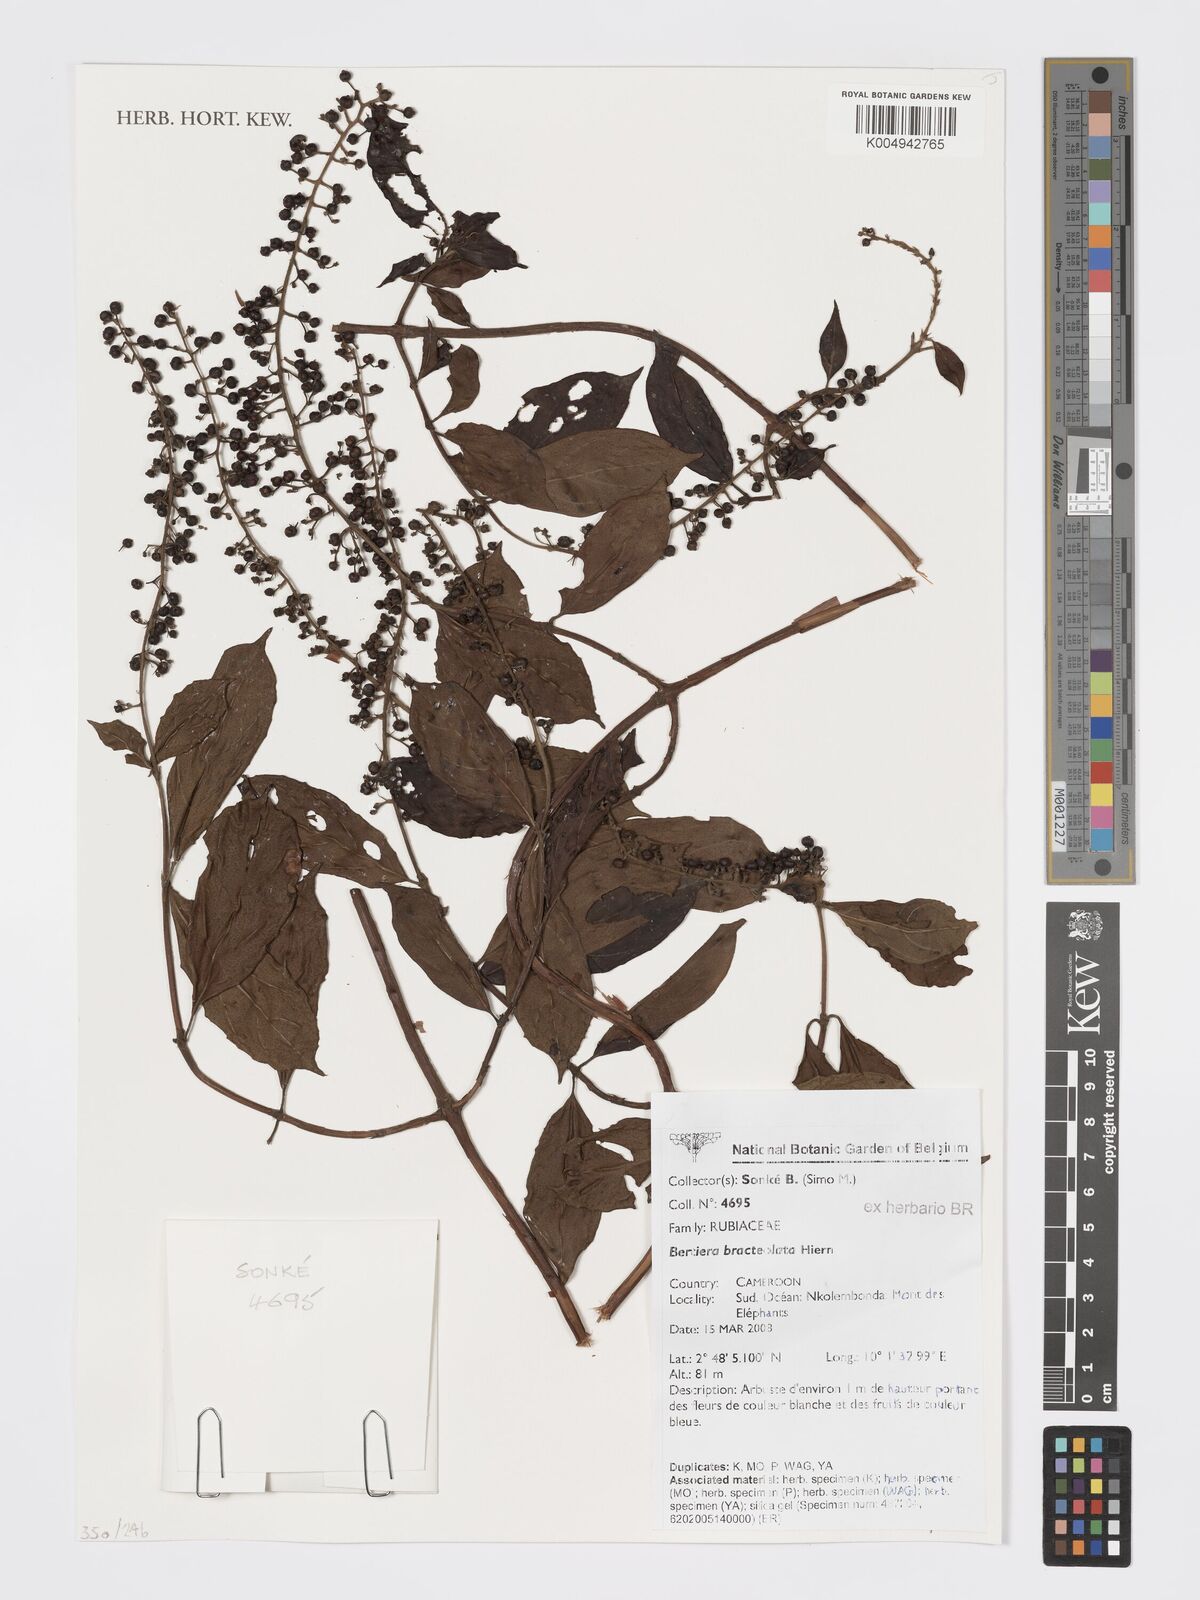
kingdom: Plantae
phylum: Tracheophyta
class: Magnoliopsida
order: Gentianales
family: Rubiaceae
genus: Bertiera
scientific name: Bertiera bracteolata
